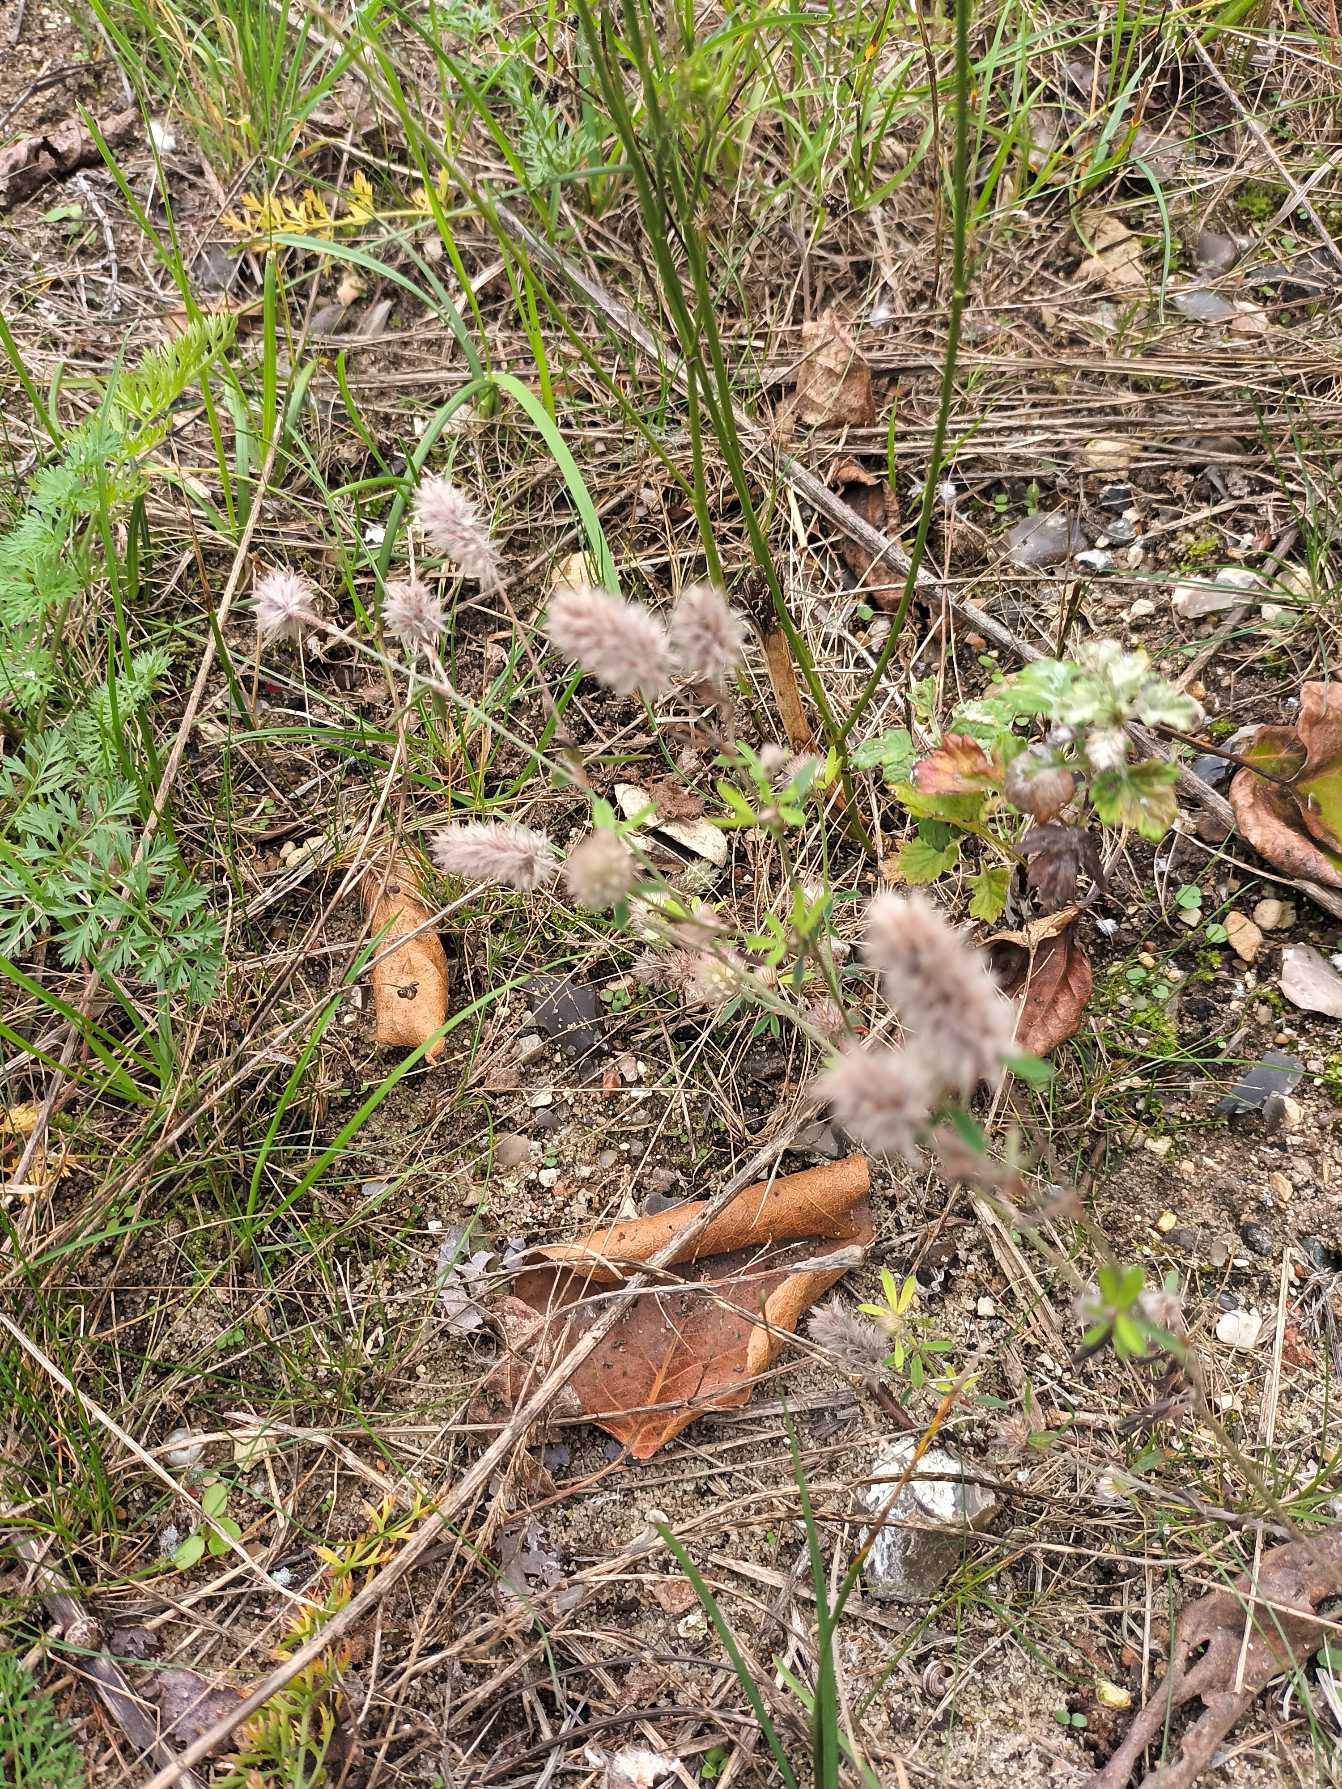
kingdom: Plantae
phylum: Tracheophyta
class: Magnoliopsida
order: Fabales
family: Fabaceae
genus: Trifolium
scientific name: Trifolium arvense
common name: Hare-kløver
